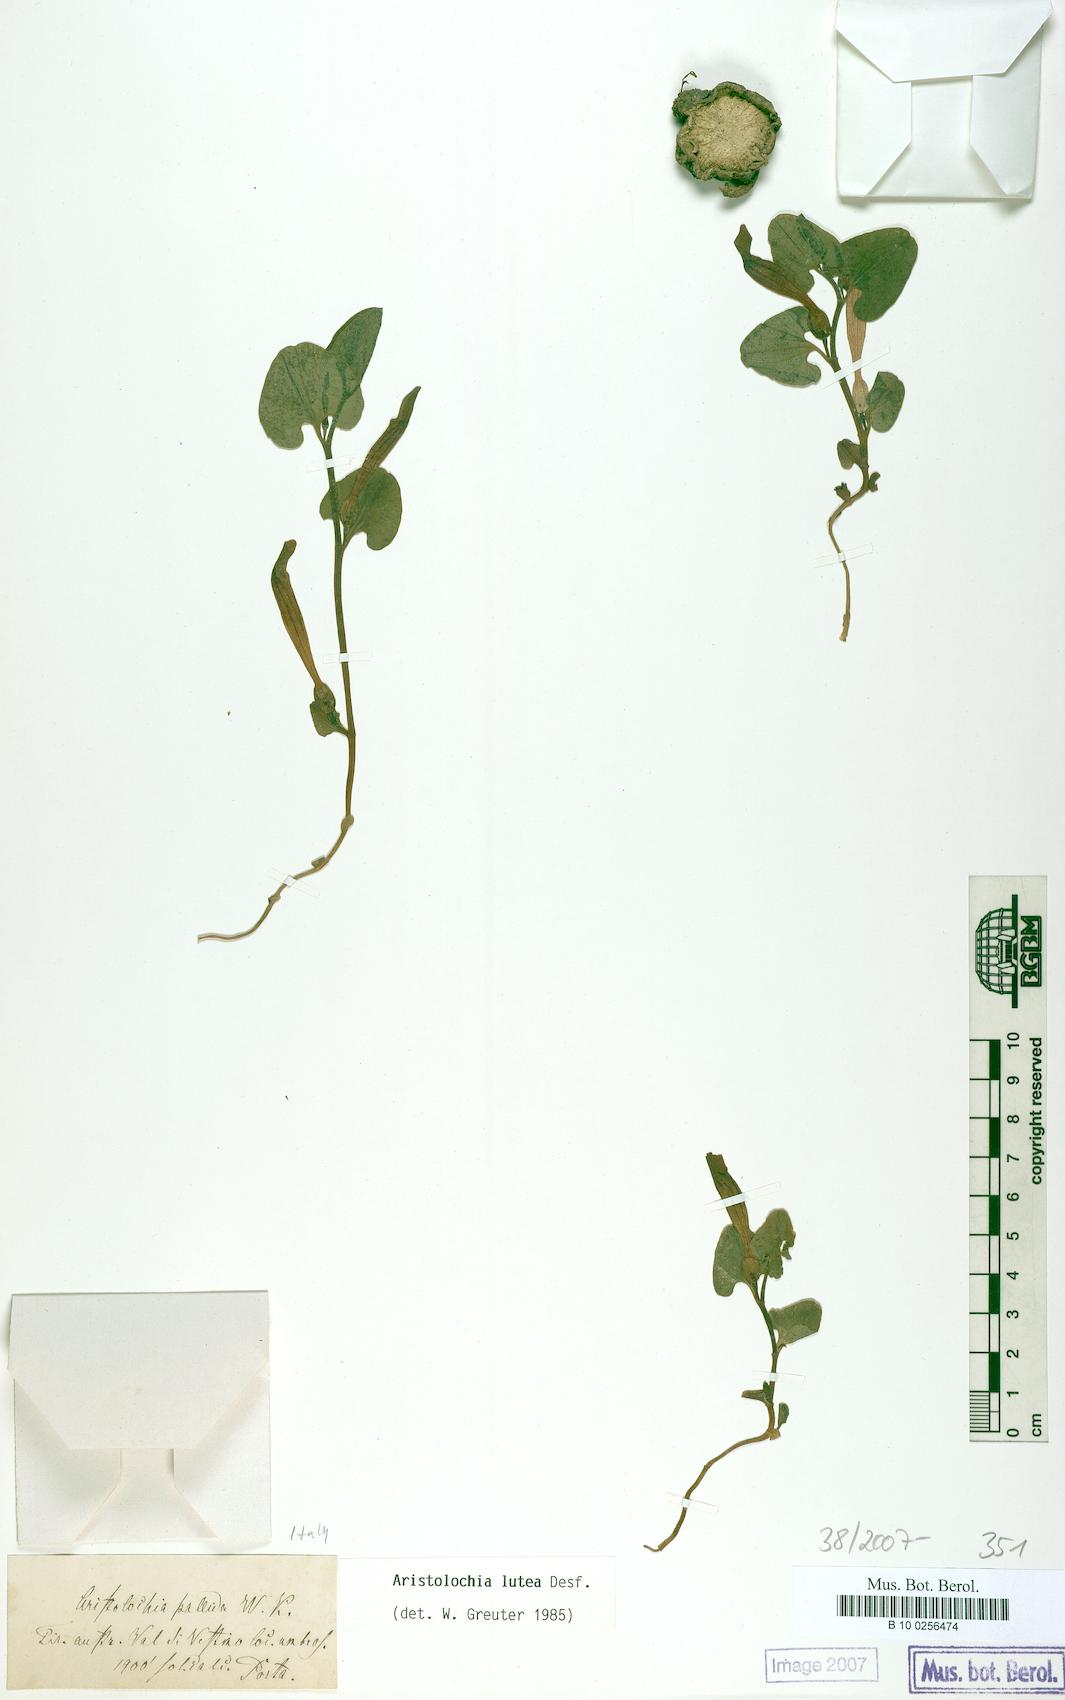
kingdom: Plantae
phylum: Tracheophyta
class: Magnoliopsida
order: Piperales
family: Aristolochiaceae
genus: Aristolochia
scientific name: Aristolochia lutea
